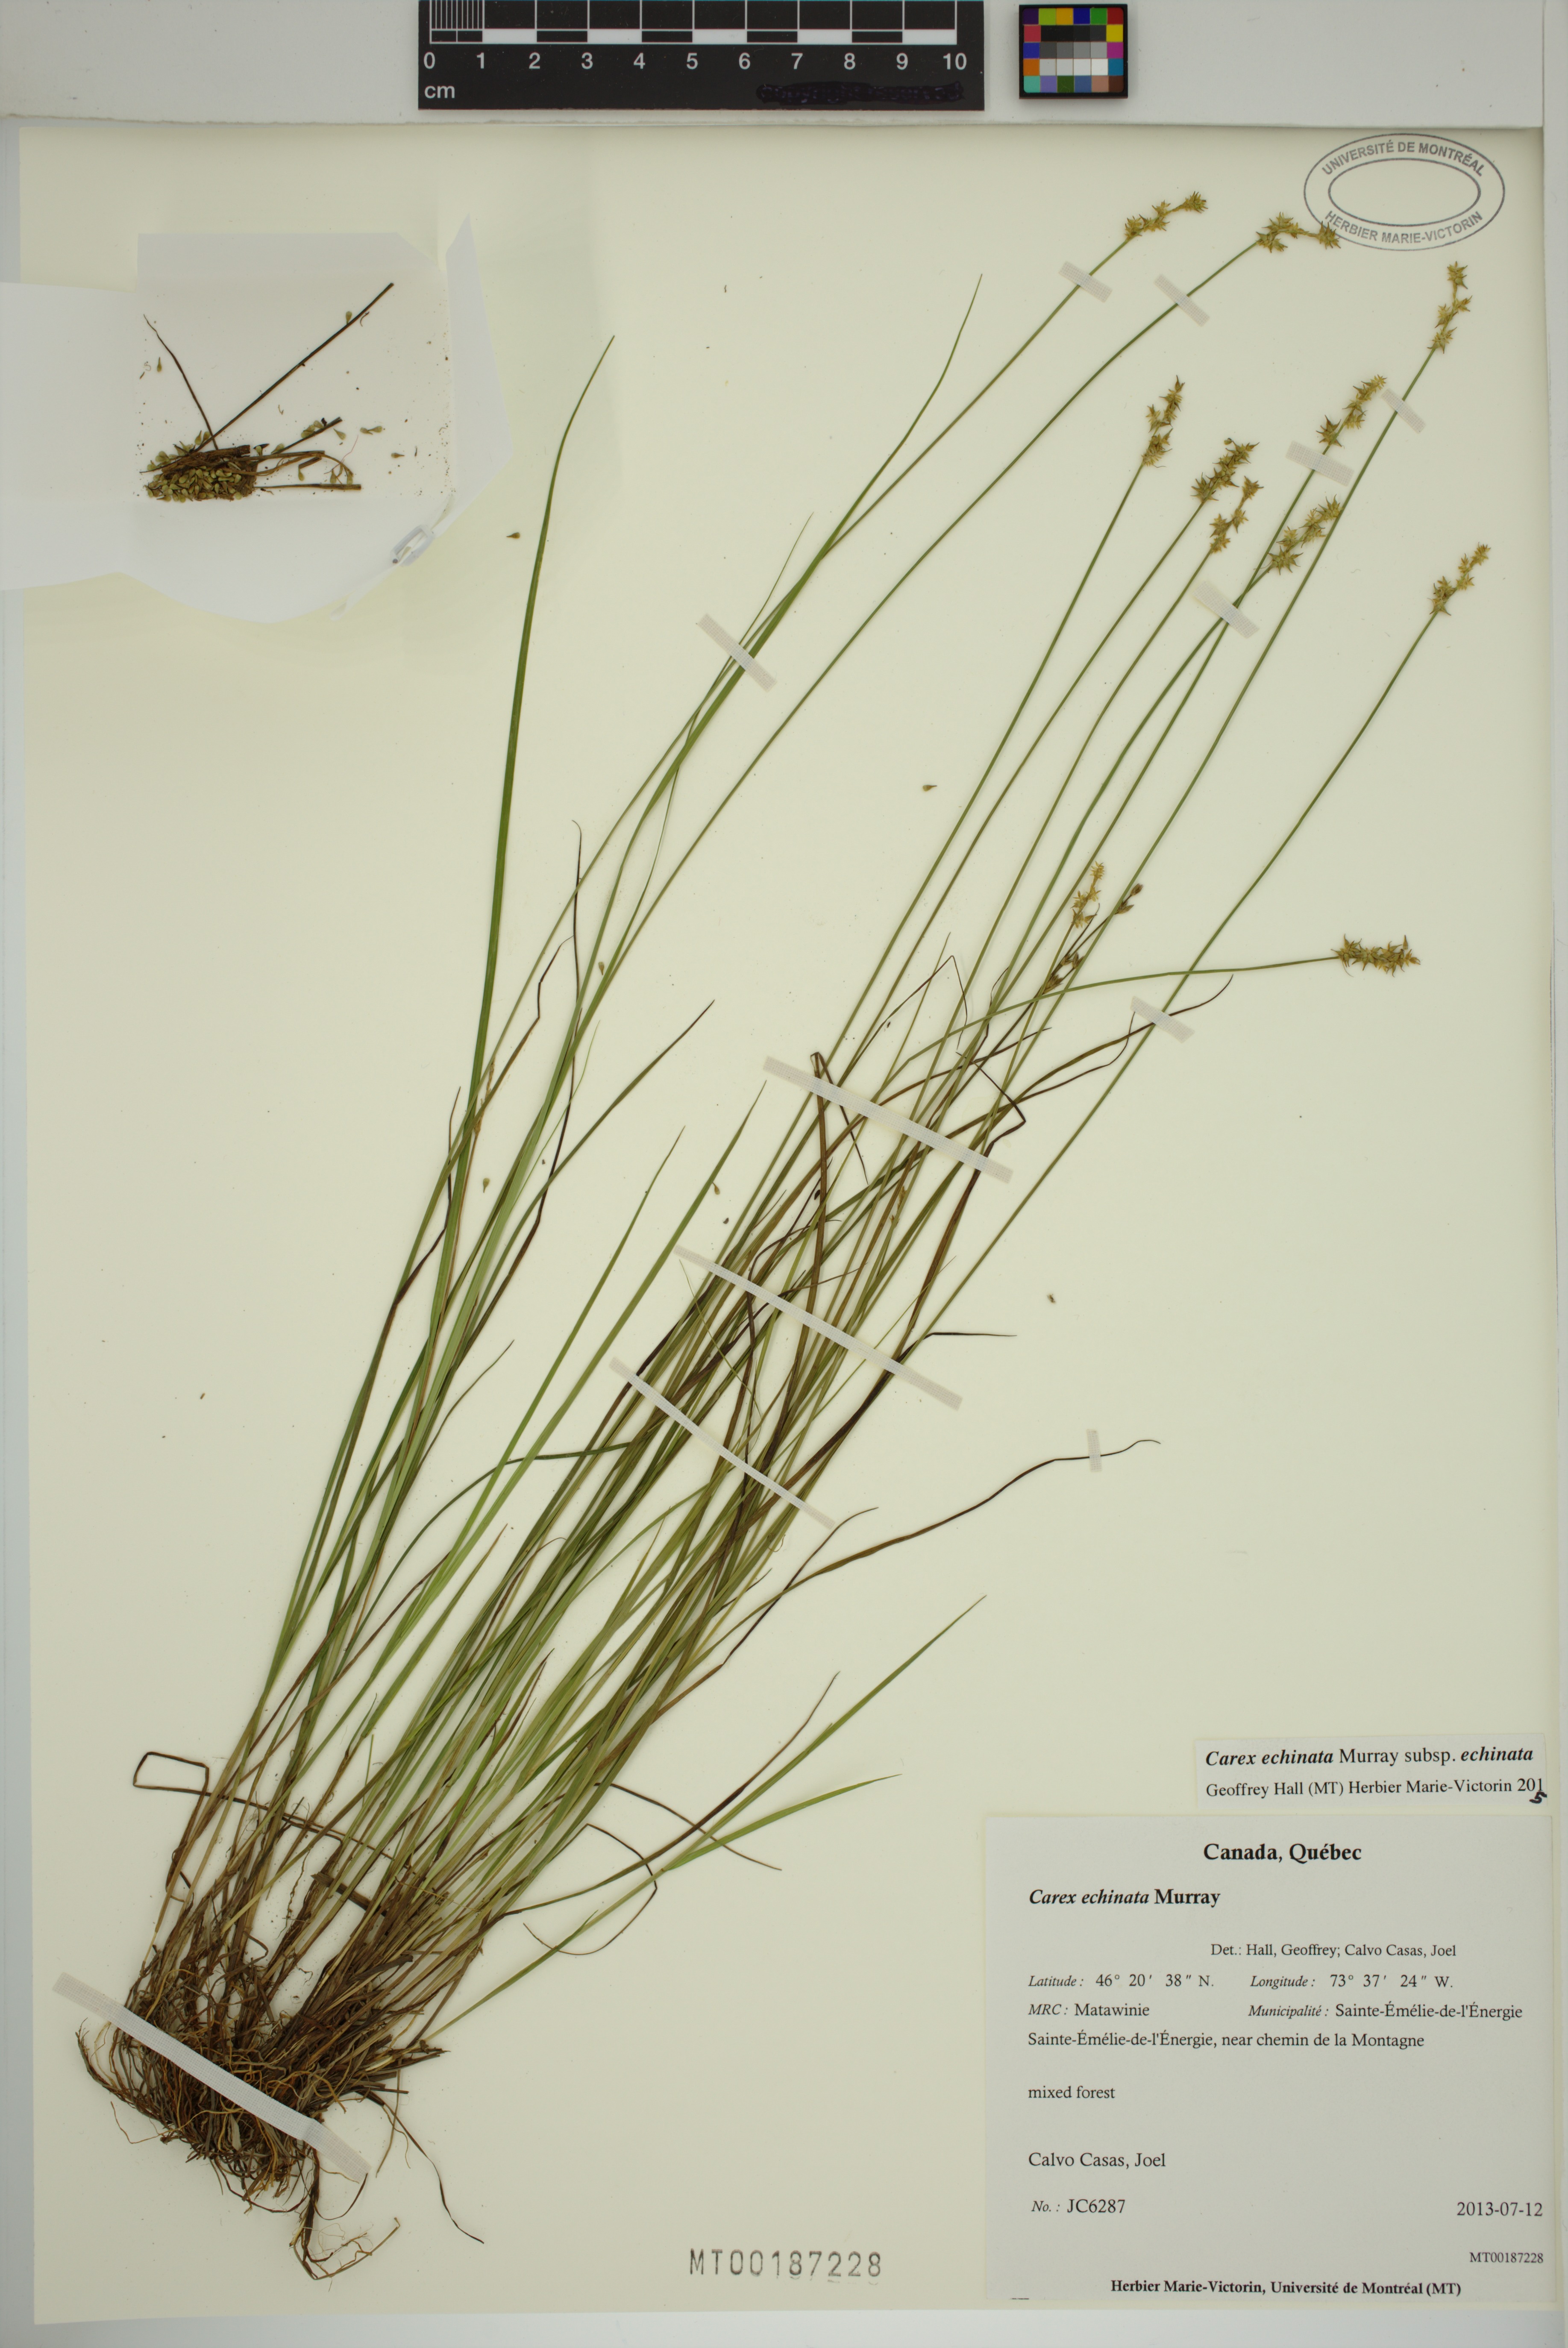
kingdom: Plantae
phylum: Tracheophyta
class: Liliopsida
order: Poales
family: Cyperaceae
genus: Carex
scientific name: Carex echinata
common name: Star sedge
